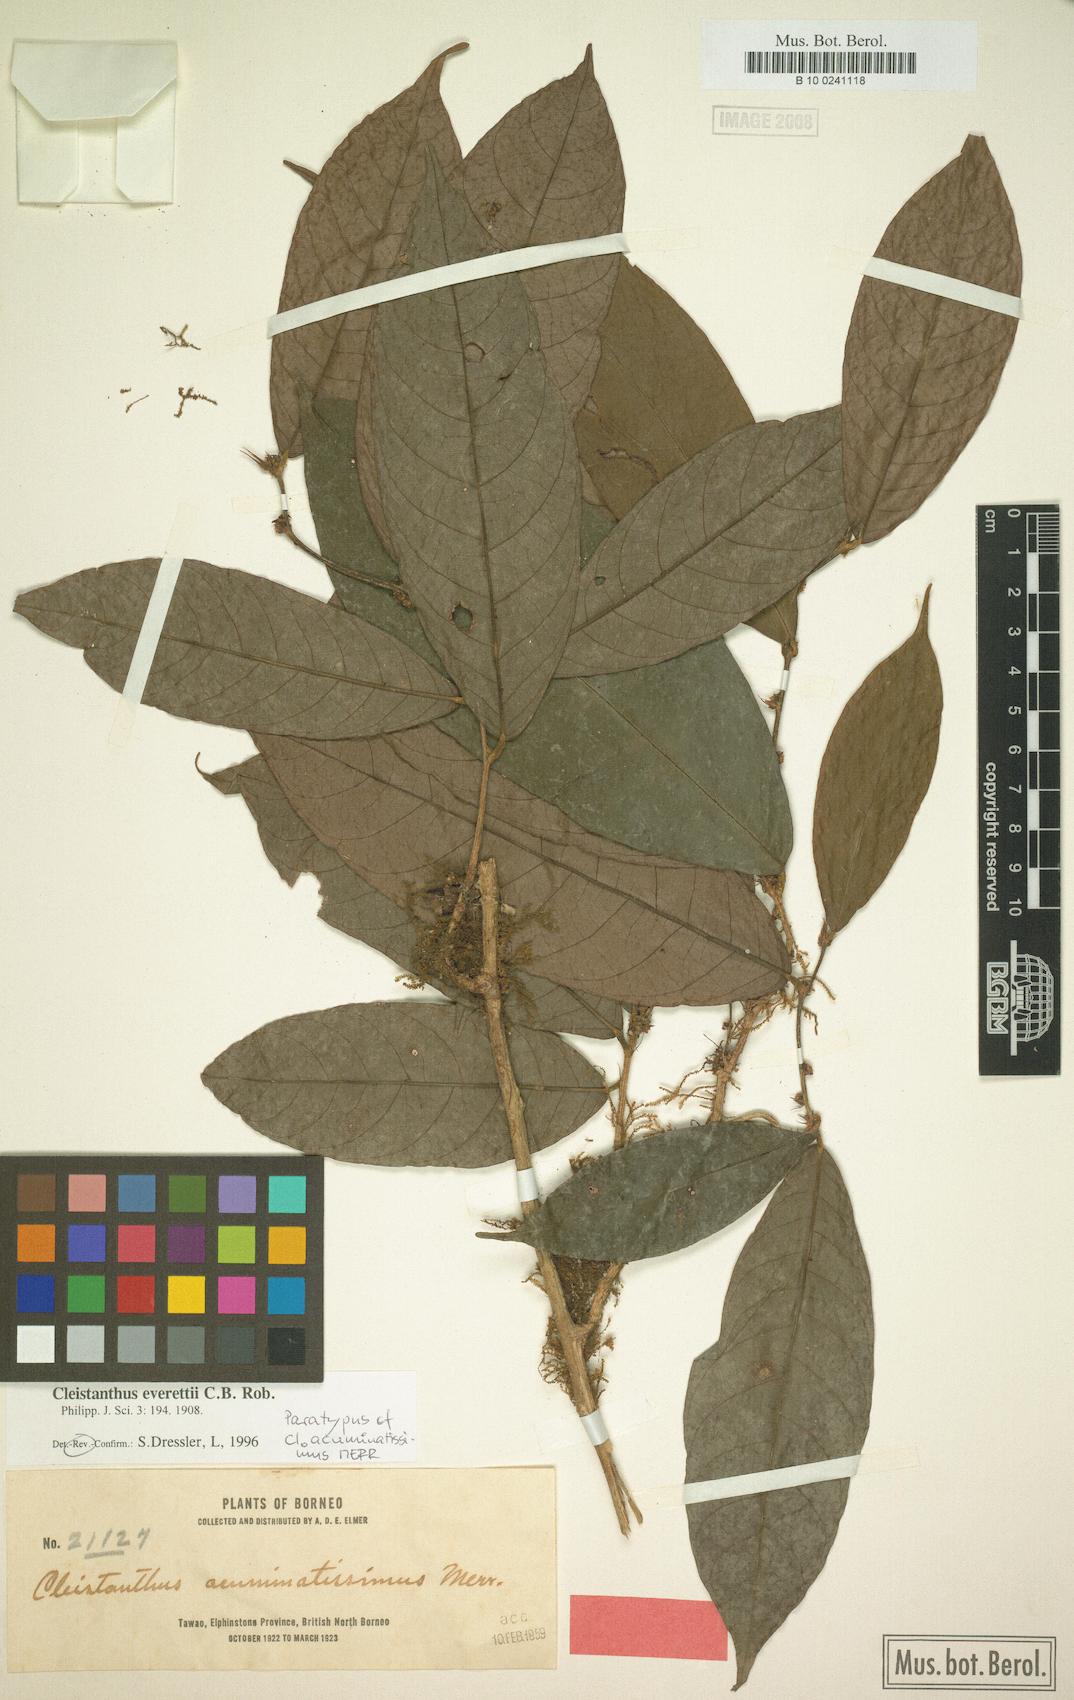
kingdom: Plantae
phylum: Tracheophyta
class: Magnoliopsida
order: Malpighiales
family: Phyllanthaceae
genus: Cleistanthus
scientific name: Cleistanthus everettii
